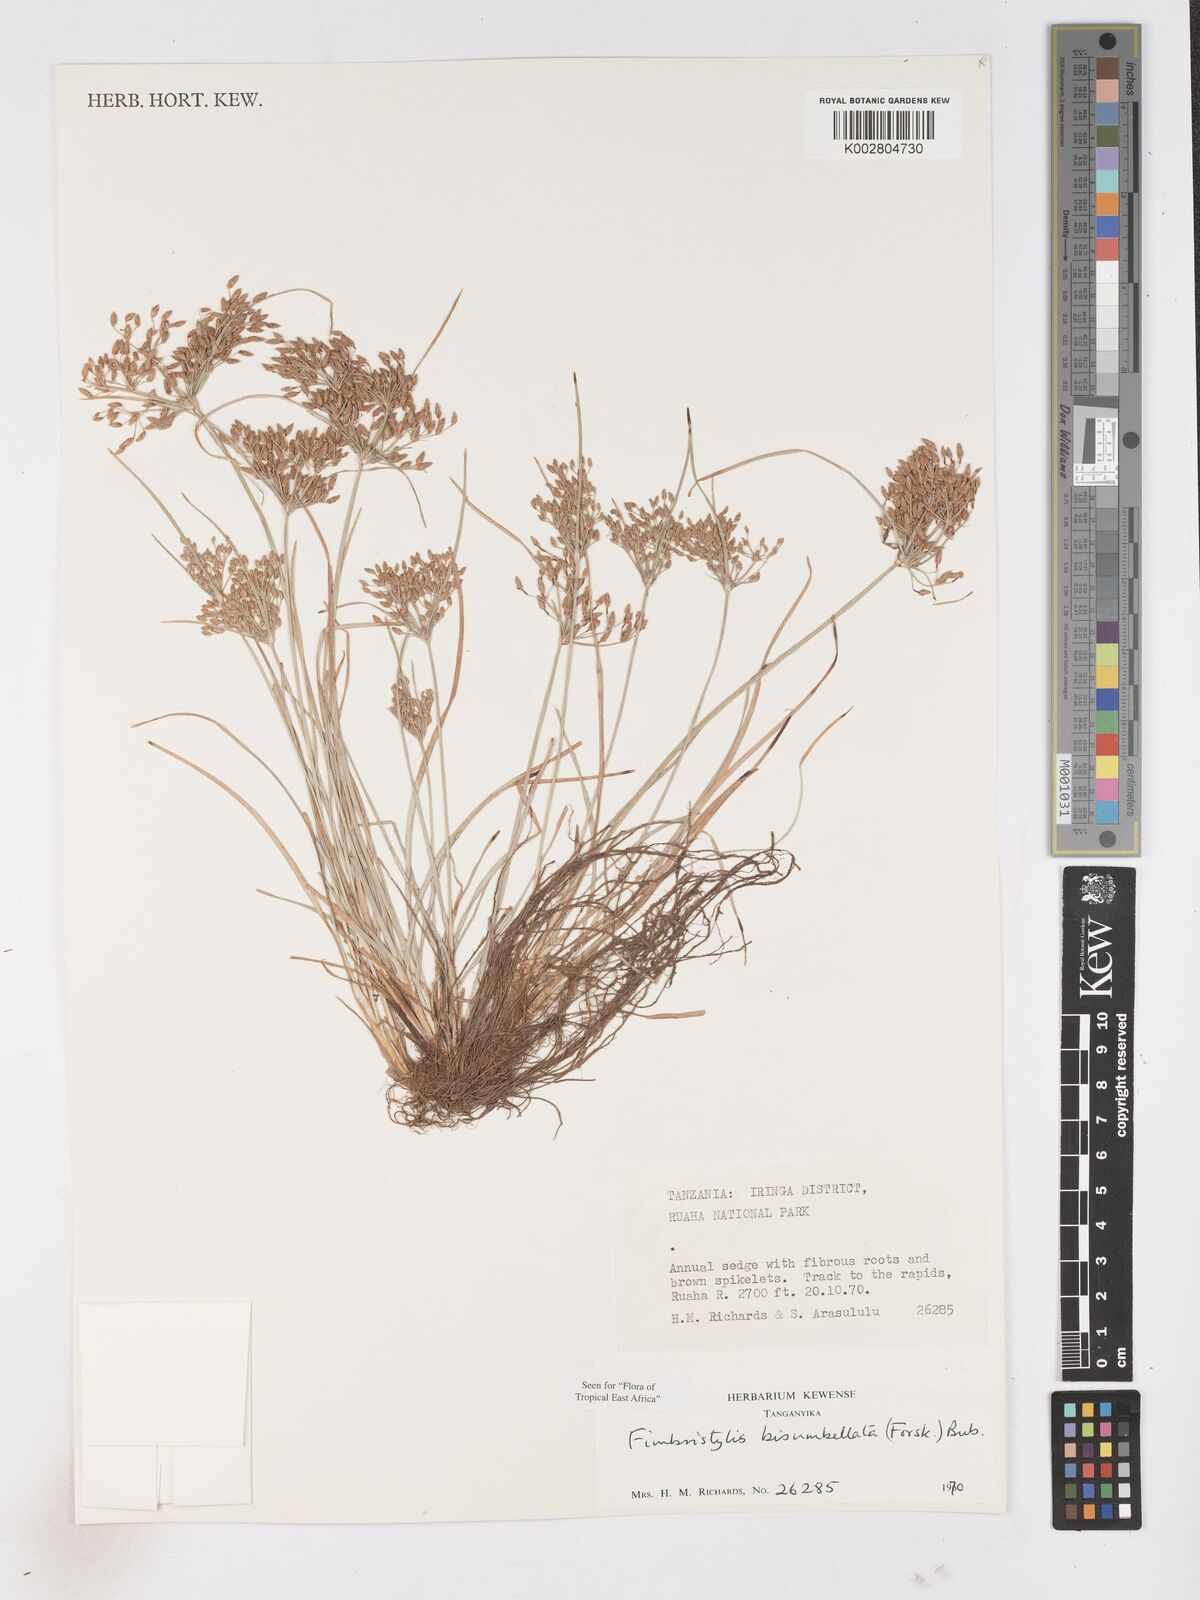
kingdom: Plantae
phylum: Tracheophyta
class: Liliopsida
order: Poales
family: Cyperaceae
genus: Fimbristylis
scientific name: Fimbristylis bisumbellata
